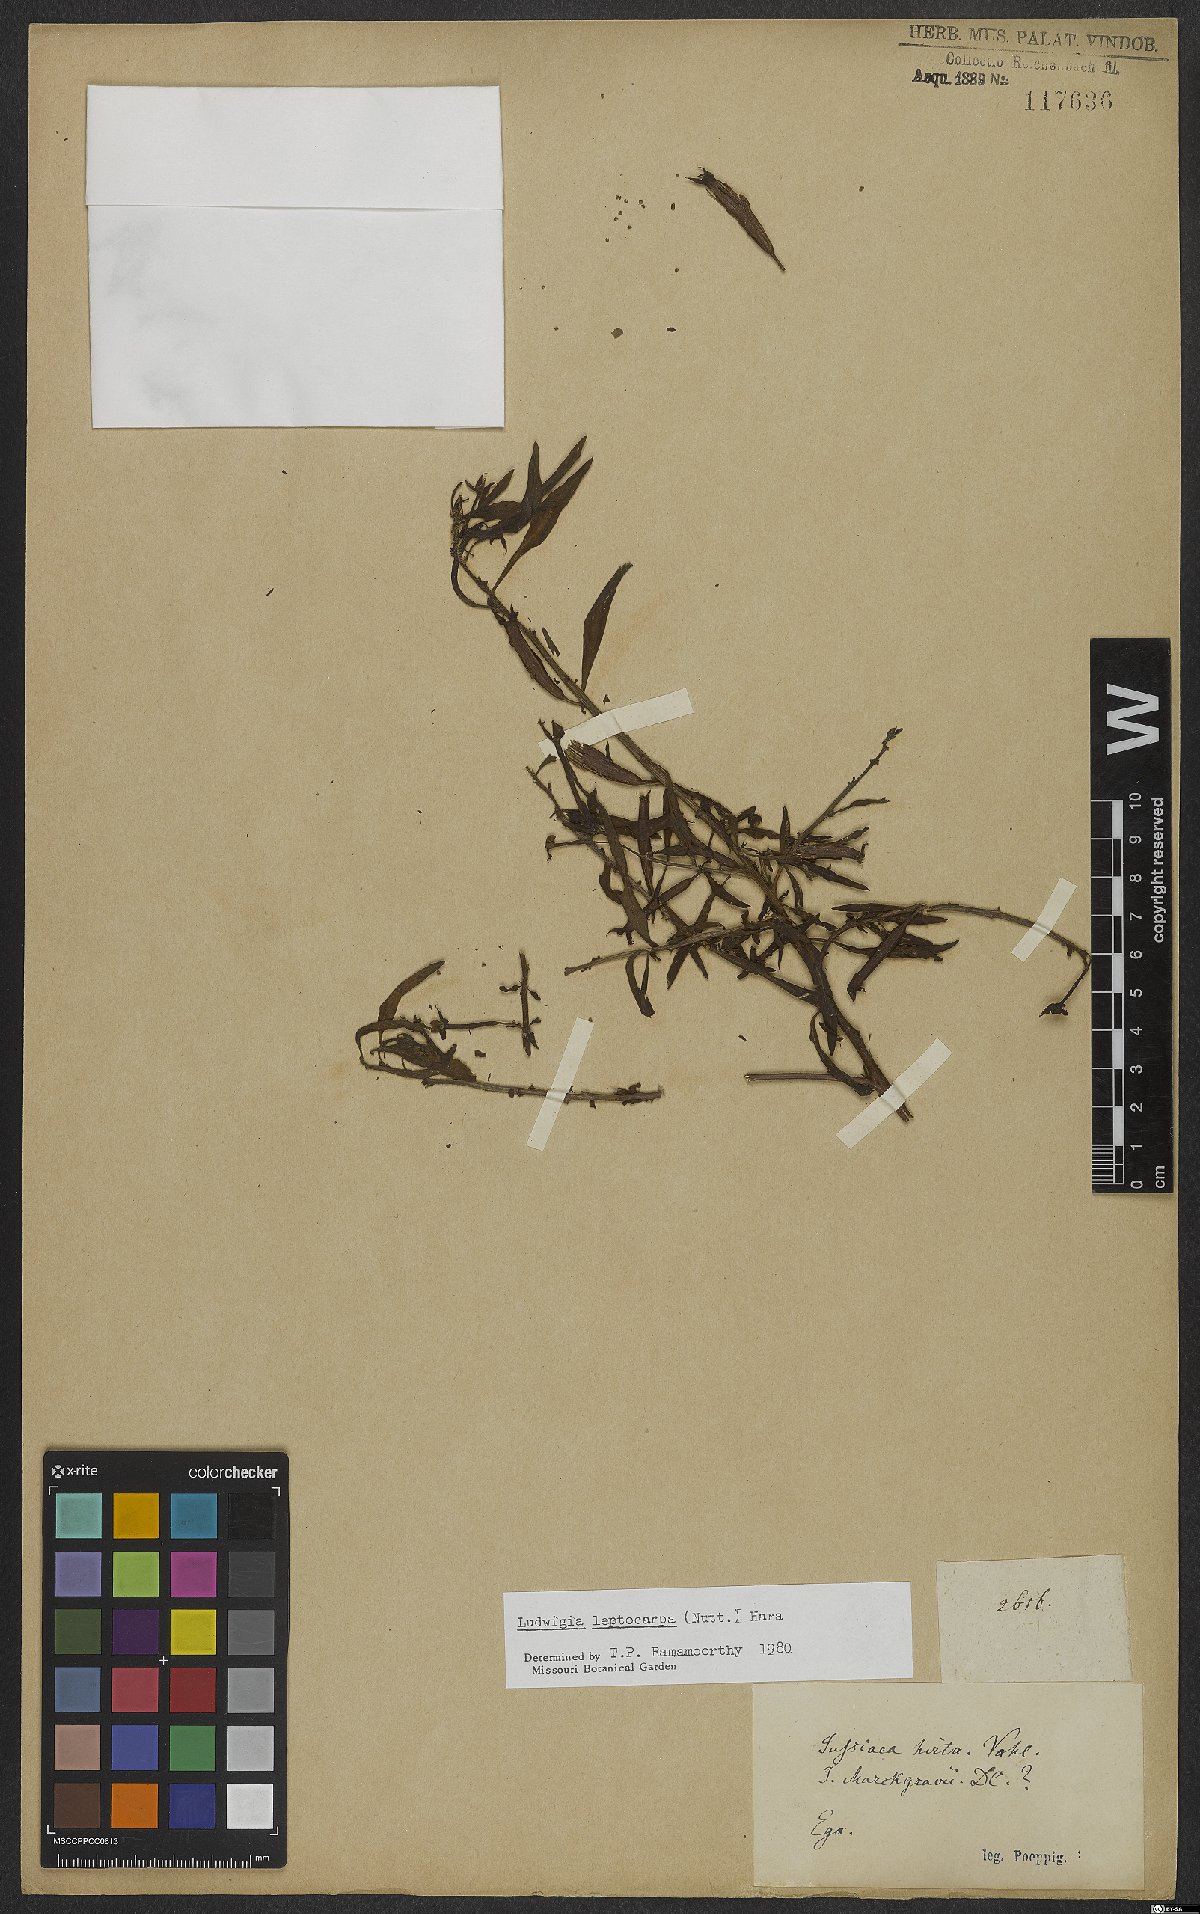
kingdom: Plantae
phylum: Tracheophyta
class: Magnoliopsida
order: Myrtales
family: Onagraceae
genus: Ludwigia
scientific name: Ludwigia leptocarpa
